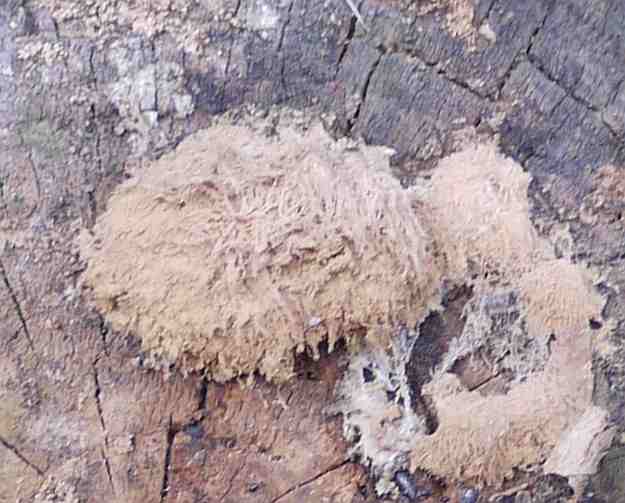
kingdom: Fungi
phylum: Basidiomycota
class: Agaricomycetes
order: Polyporales
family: Dacryobolaceae
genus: Postia
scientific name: Postia ptychogaster
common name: støvende kødporesvamp
